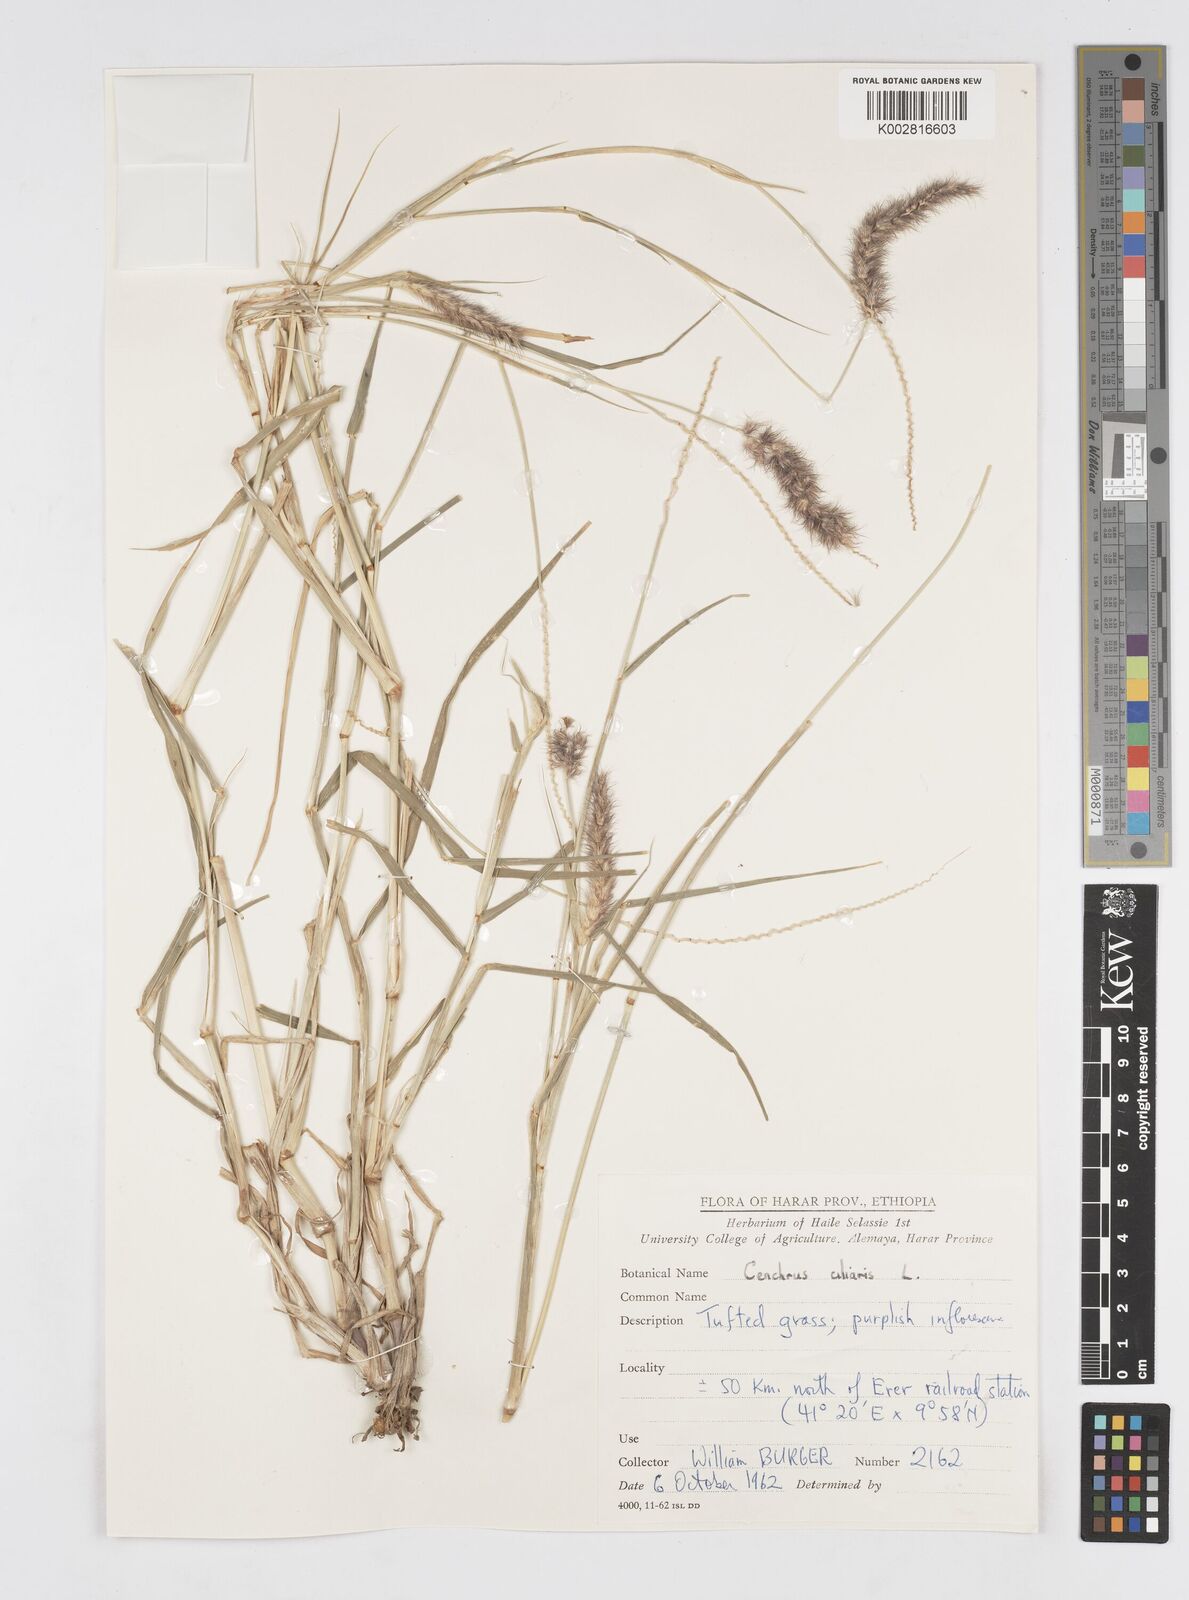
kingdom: Plantae
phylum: Tracheophyta
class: Liliopsida
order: Poales
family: Poaceae
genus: Cenchrus
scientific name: Cenchrus ciliaris
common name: Buffelgrass
